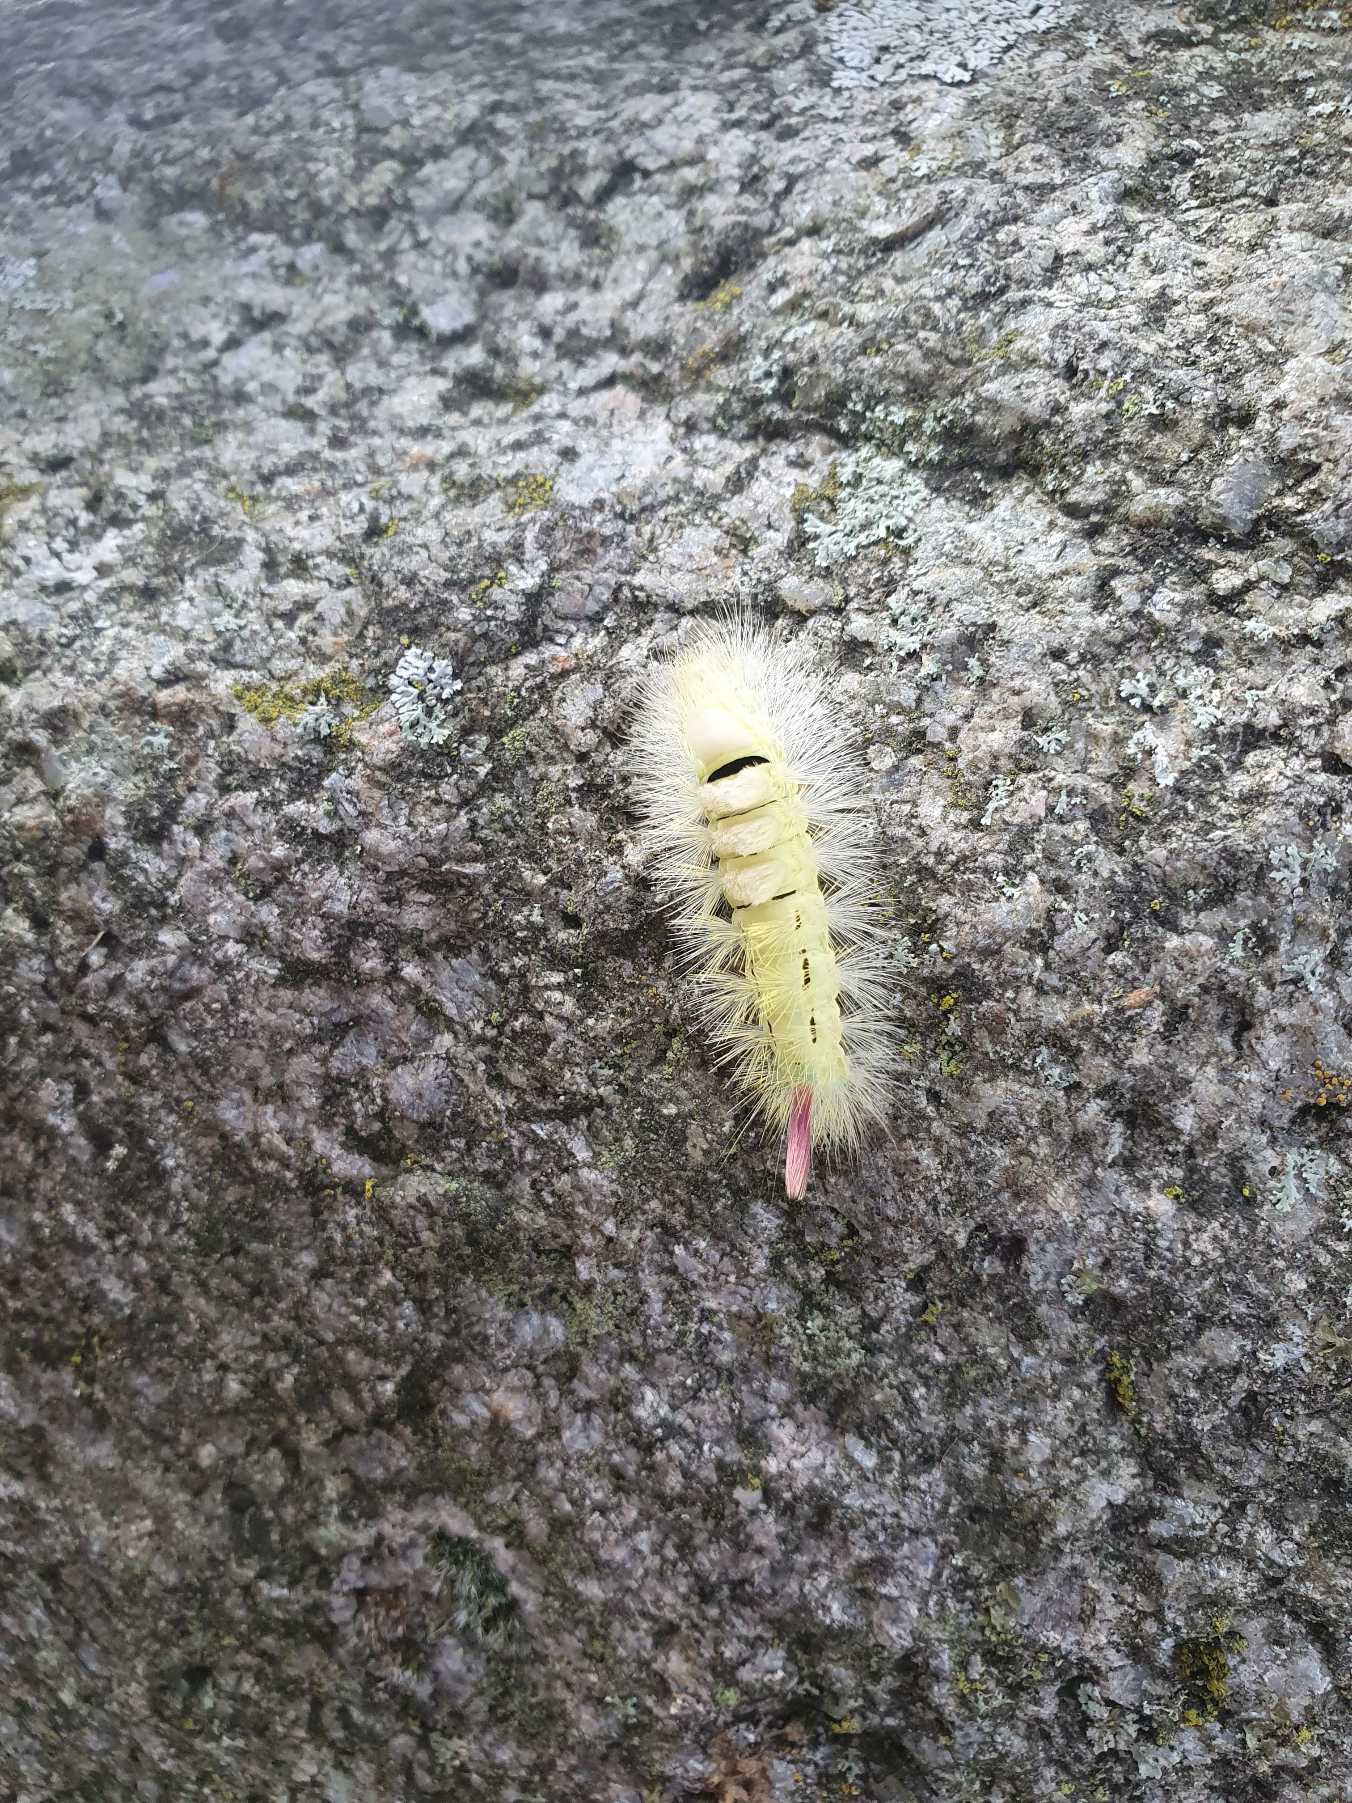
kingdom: Animalia
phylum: Arthropoda
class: Insecta
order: Lepidoptera
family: Erebidae
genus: Calliteara
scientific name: Calliteara pudibunda
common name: Bøgenonne
